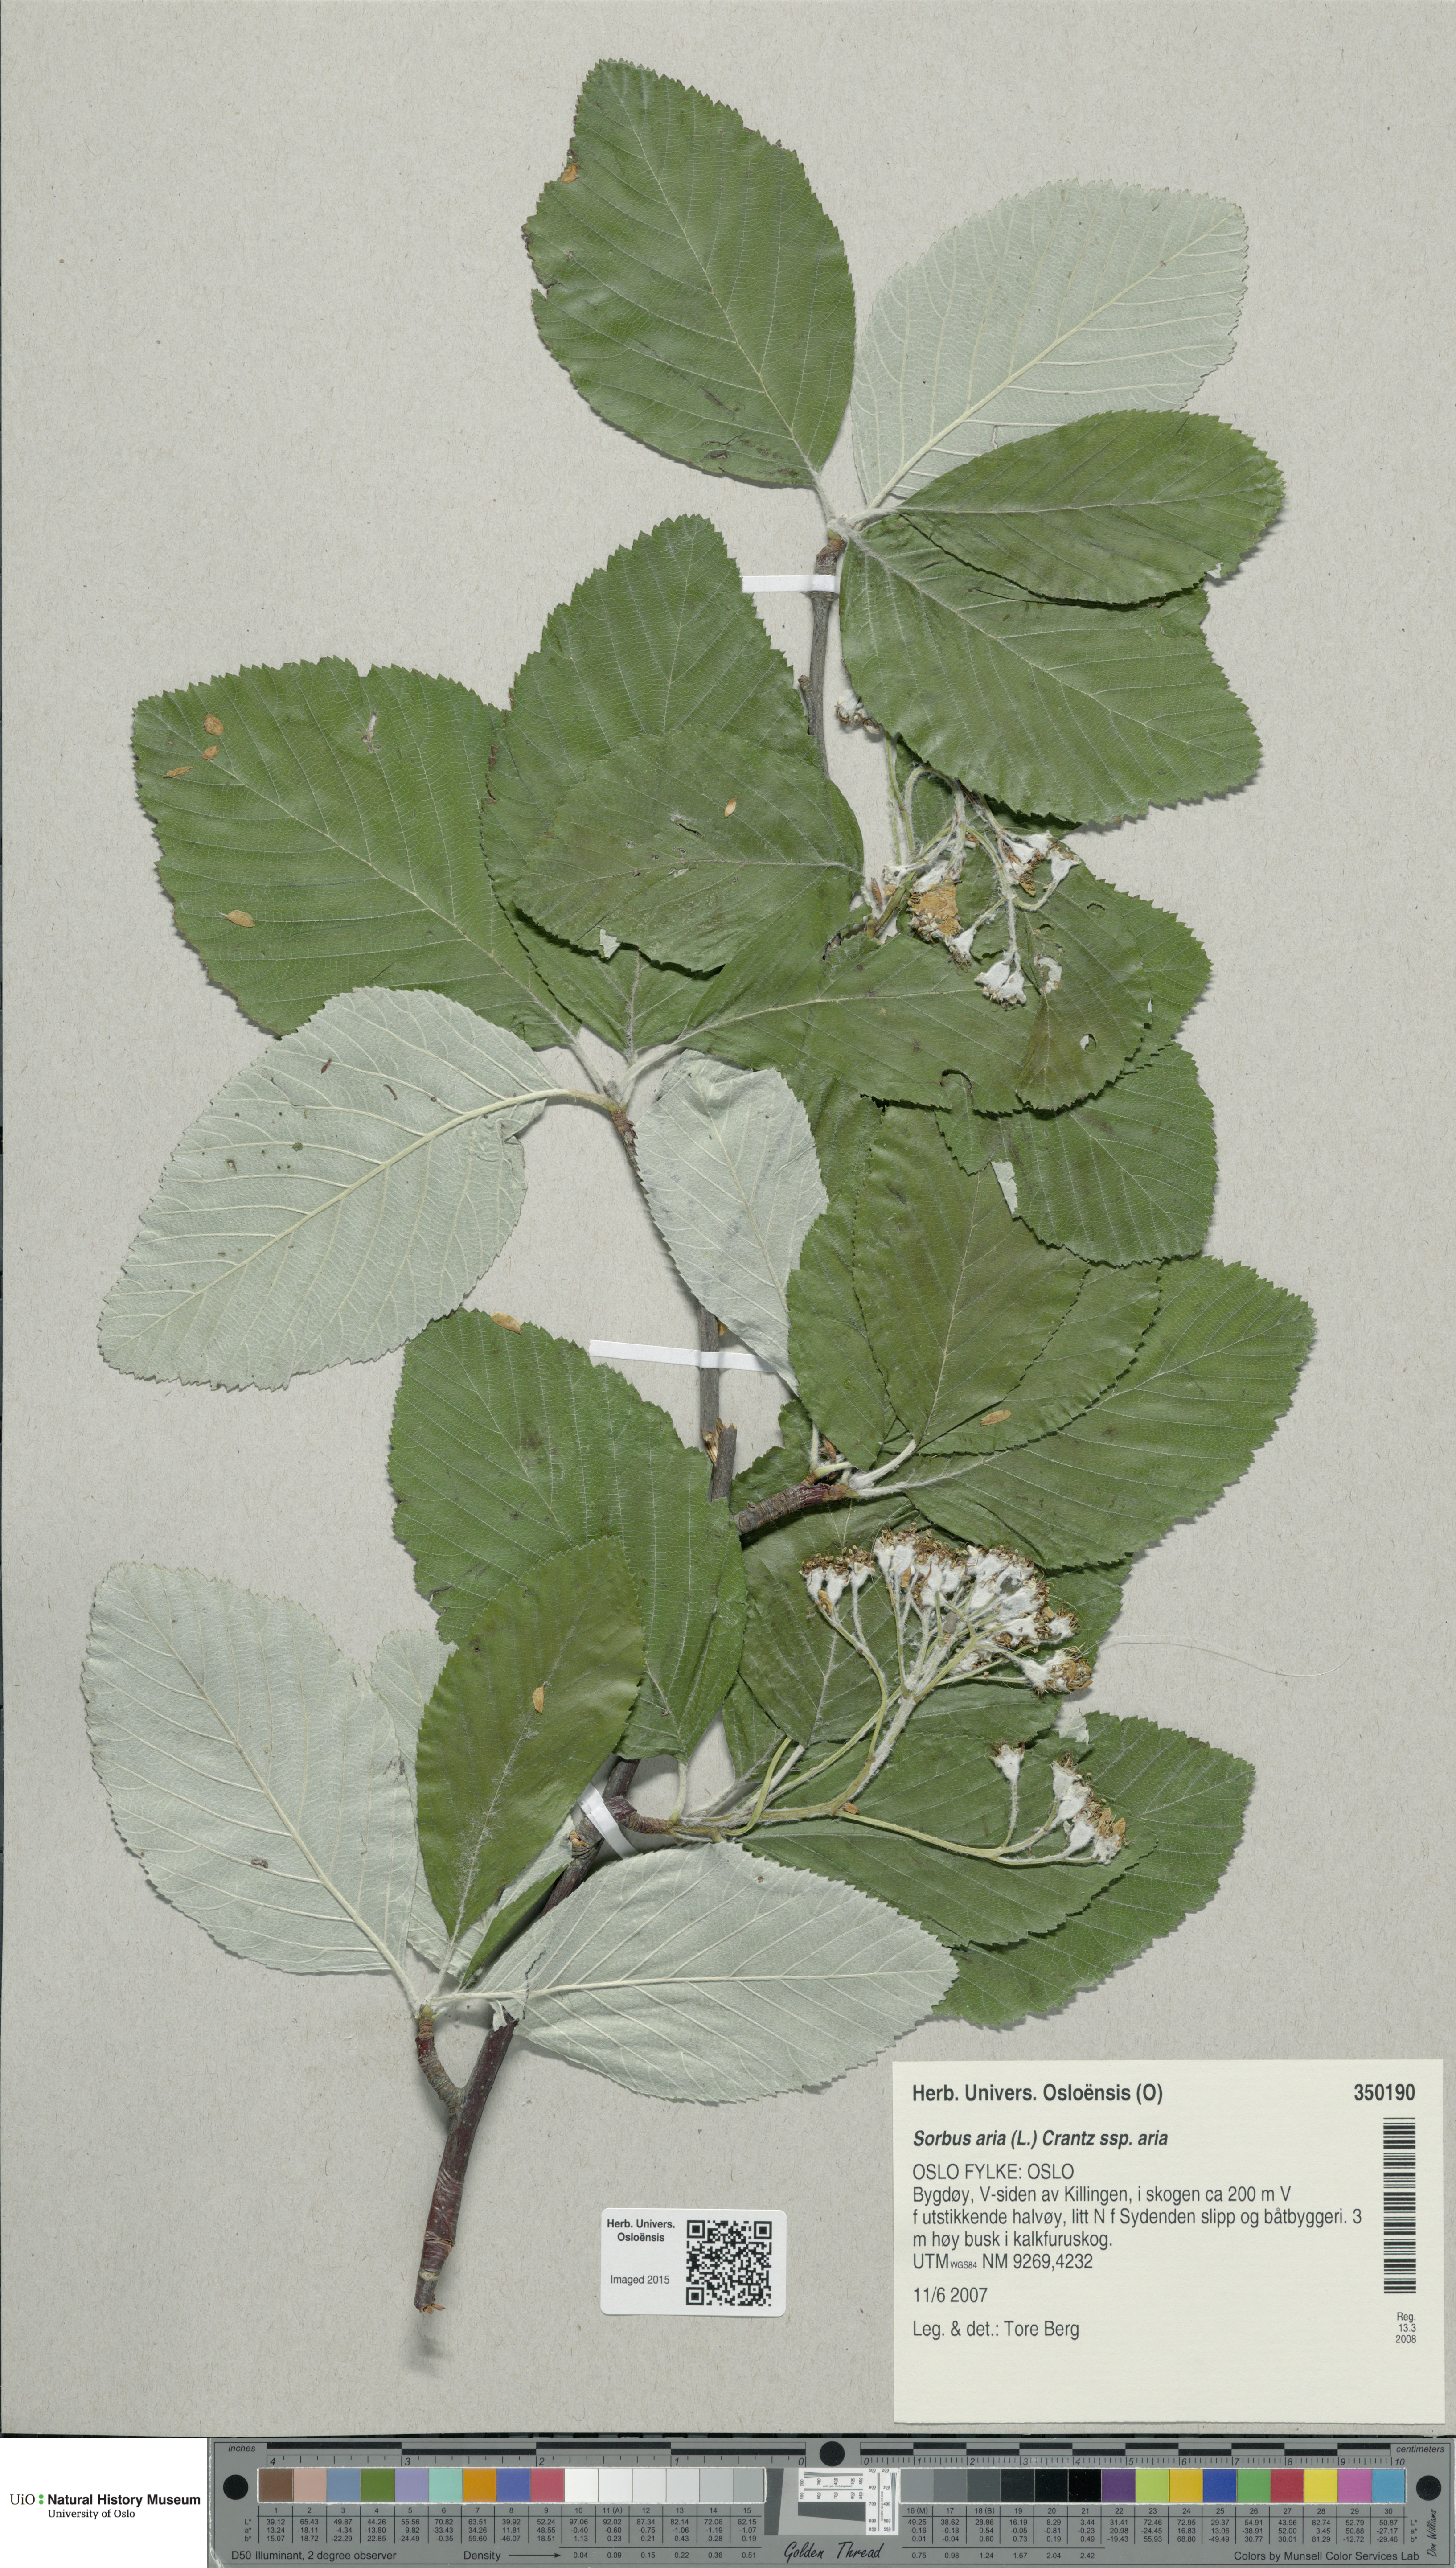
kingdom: Plantae
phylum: Tracheophyta
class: Magnoliopsida
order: Rosales
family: Rosaceae
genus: Aria
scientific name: Aria edulis
